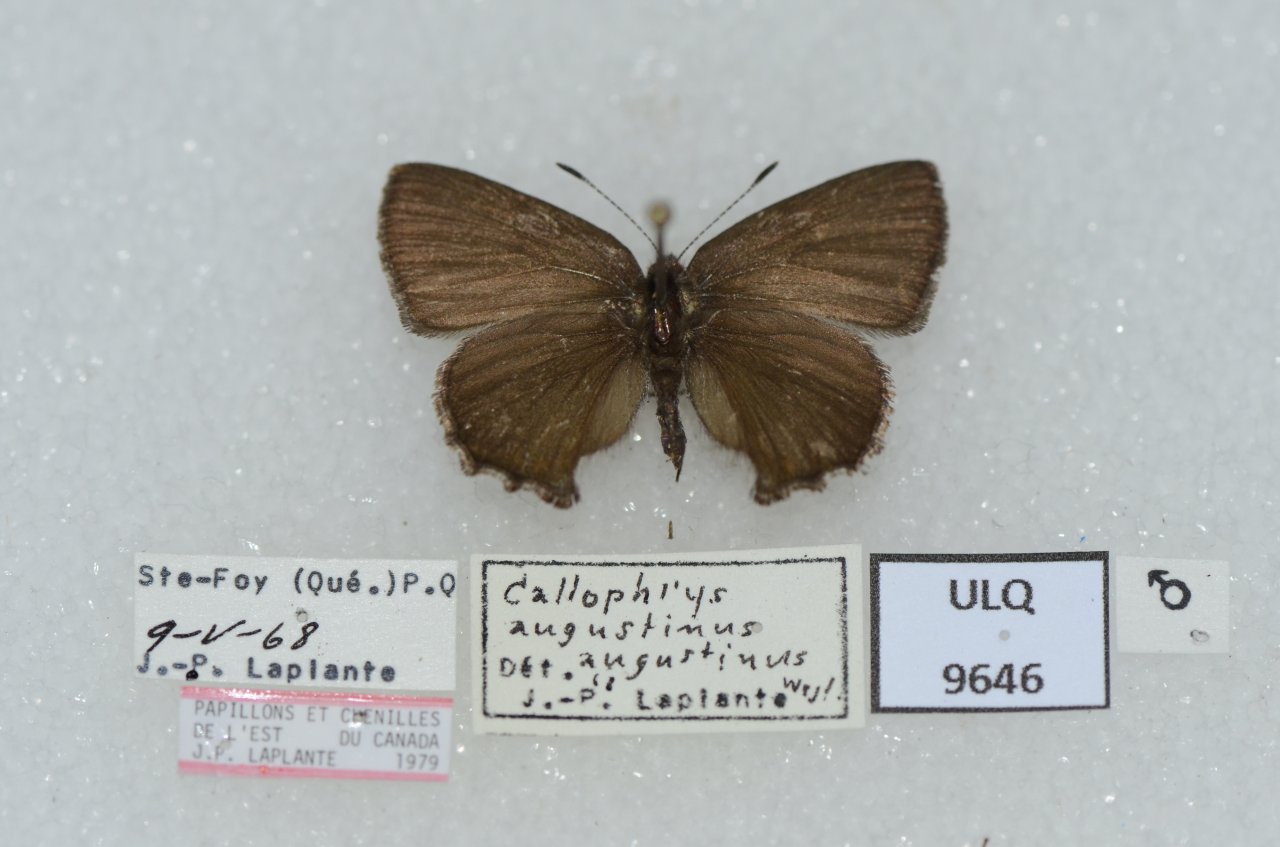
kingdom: Animalia
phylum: Arthropoda
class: Insecta
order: Lepidoptera
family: Lycaenidae
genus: Incisalia
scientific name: Incisalia irioides
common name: Brown Elfin
